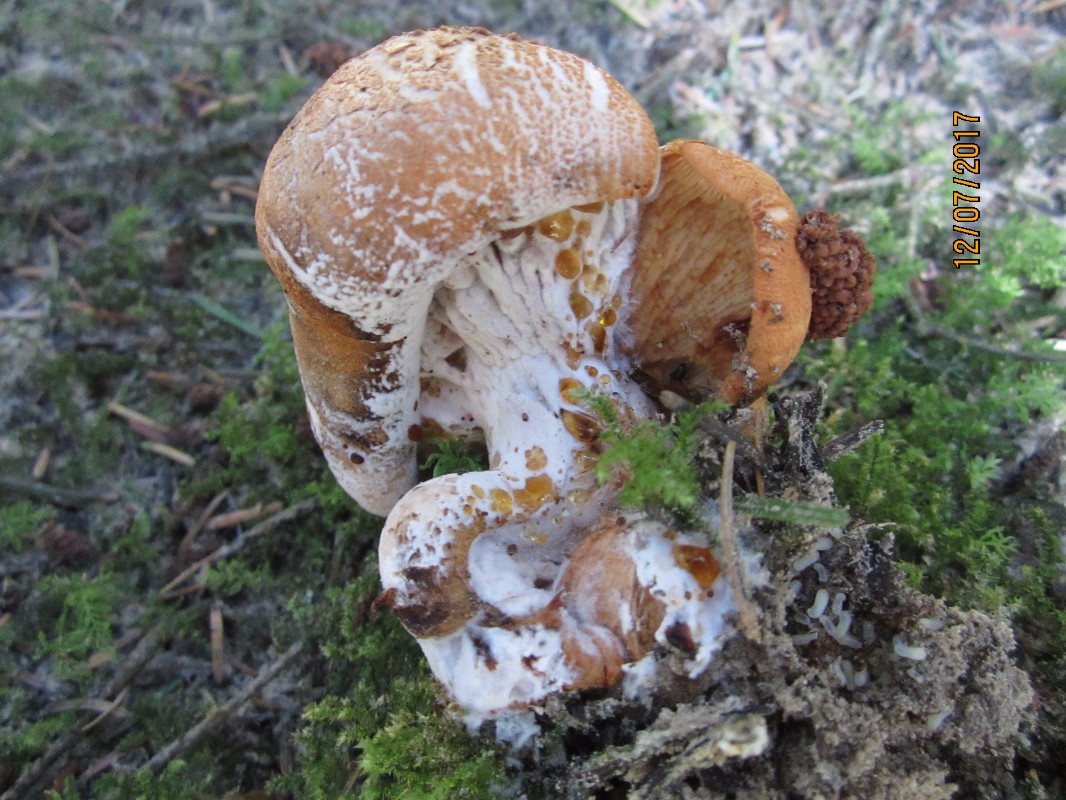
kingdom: Fungi
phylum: Basidiomycota
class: Agaricomycetes
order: Agaricales
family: Tricholomataceae
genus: Tricholoma
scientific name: Tricholoma aurantium
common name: orangegul ridderhat
